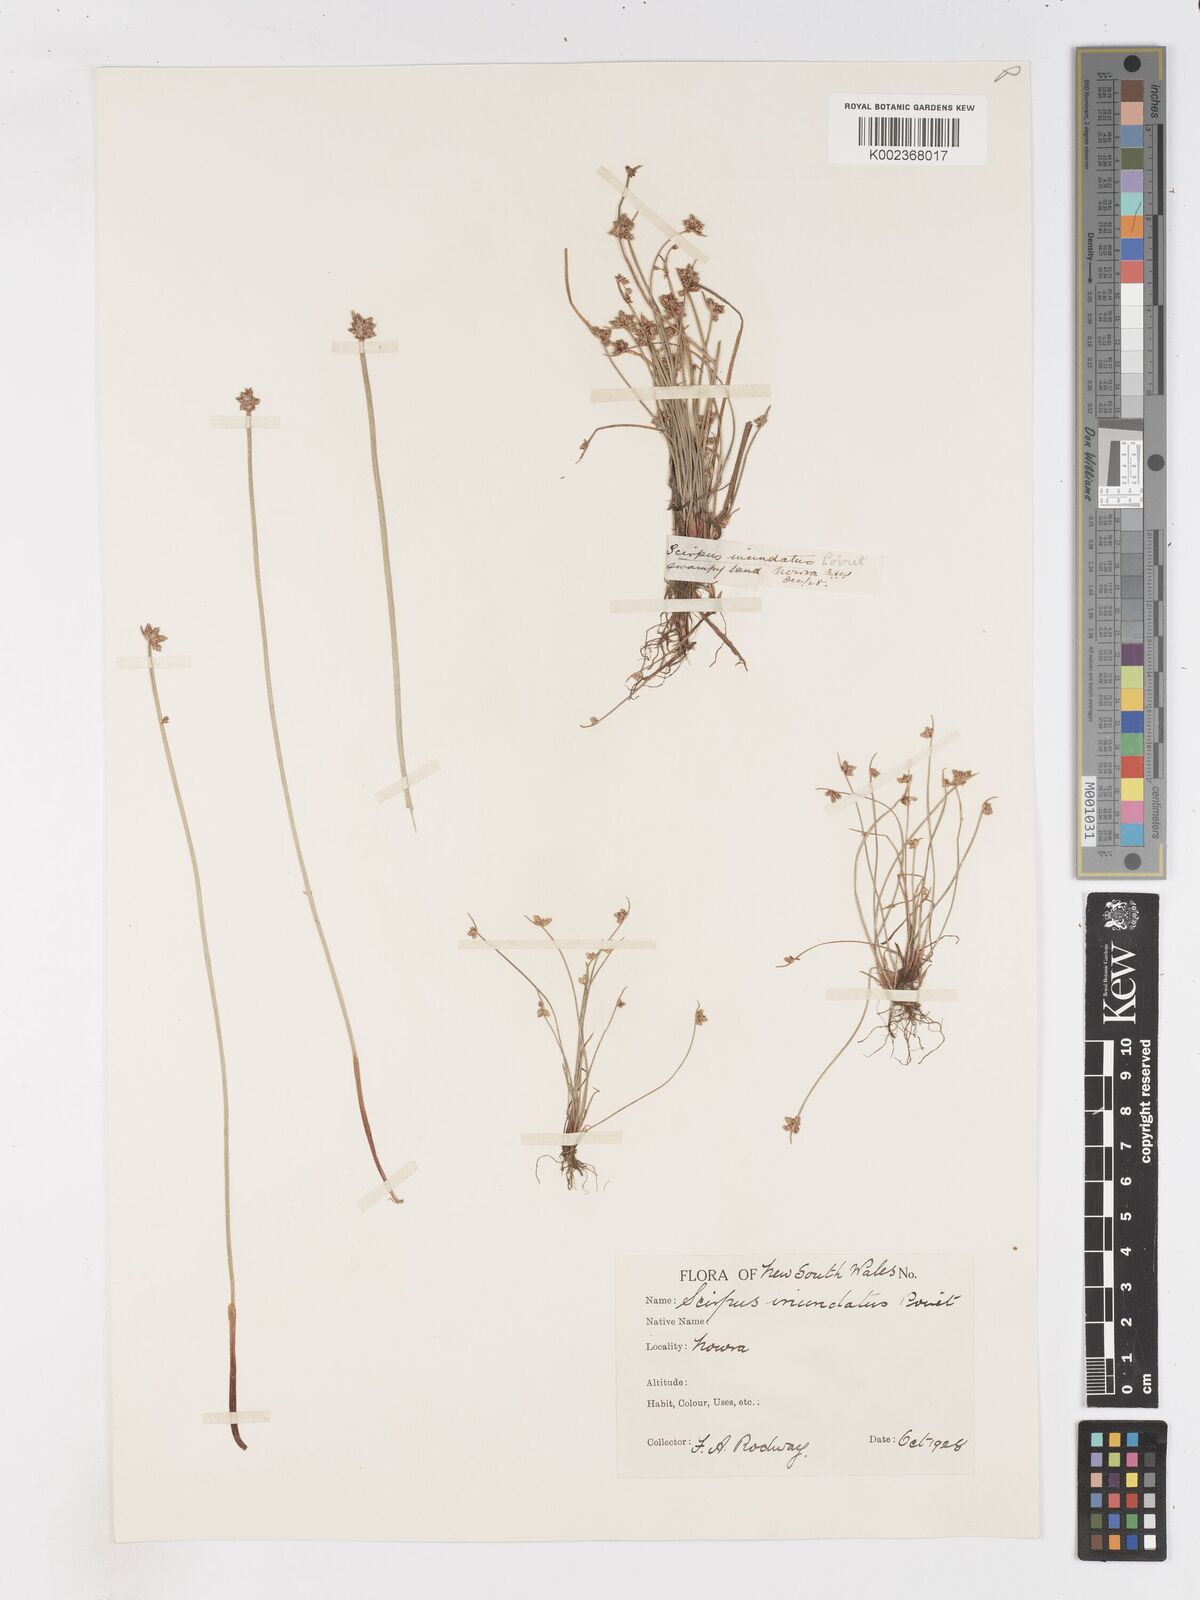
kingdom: Plantae
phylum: Tracheophyta
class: Liliopsida
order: Poales
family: Cyperaceae
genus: Isolepis
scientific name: Isolepis inundata
